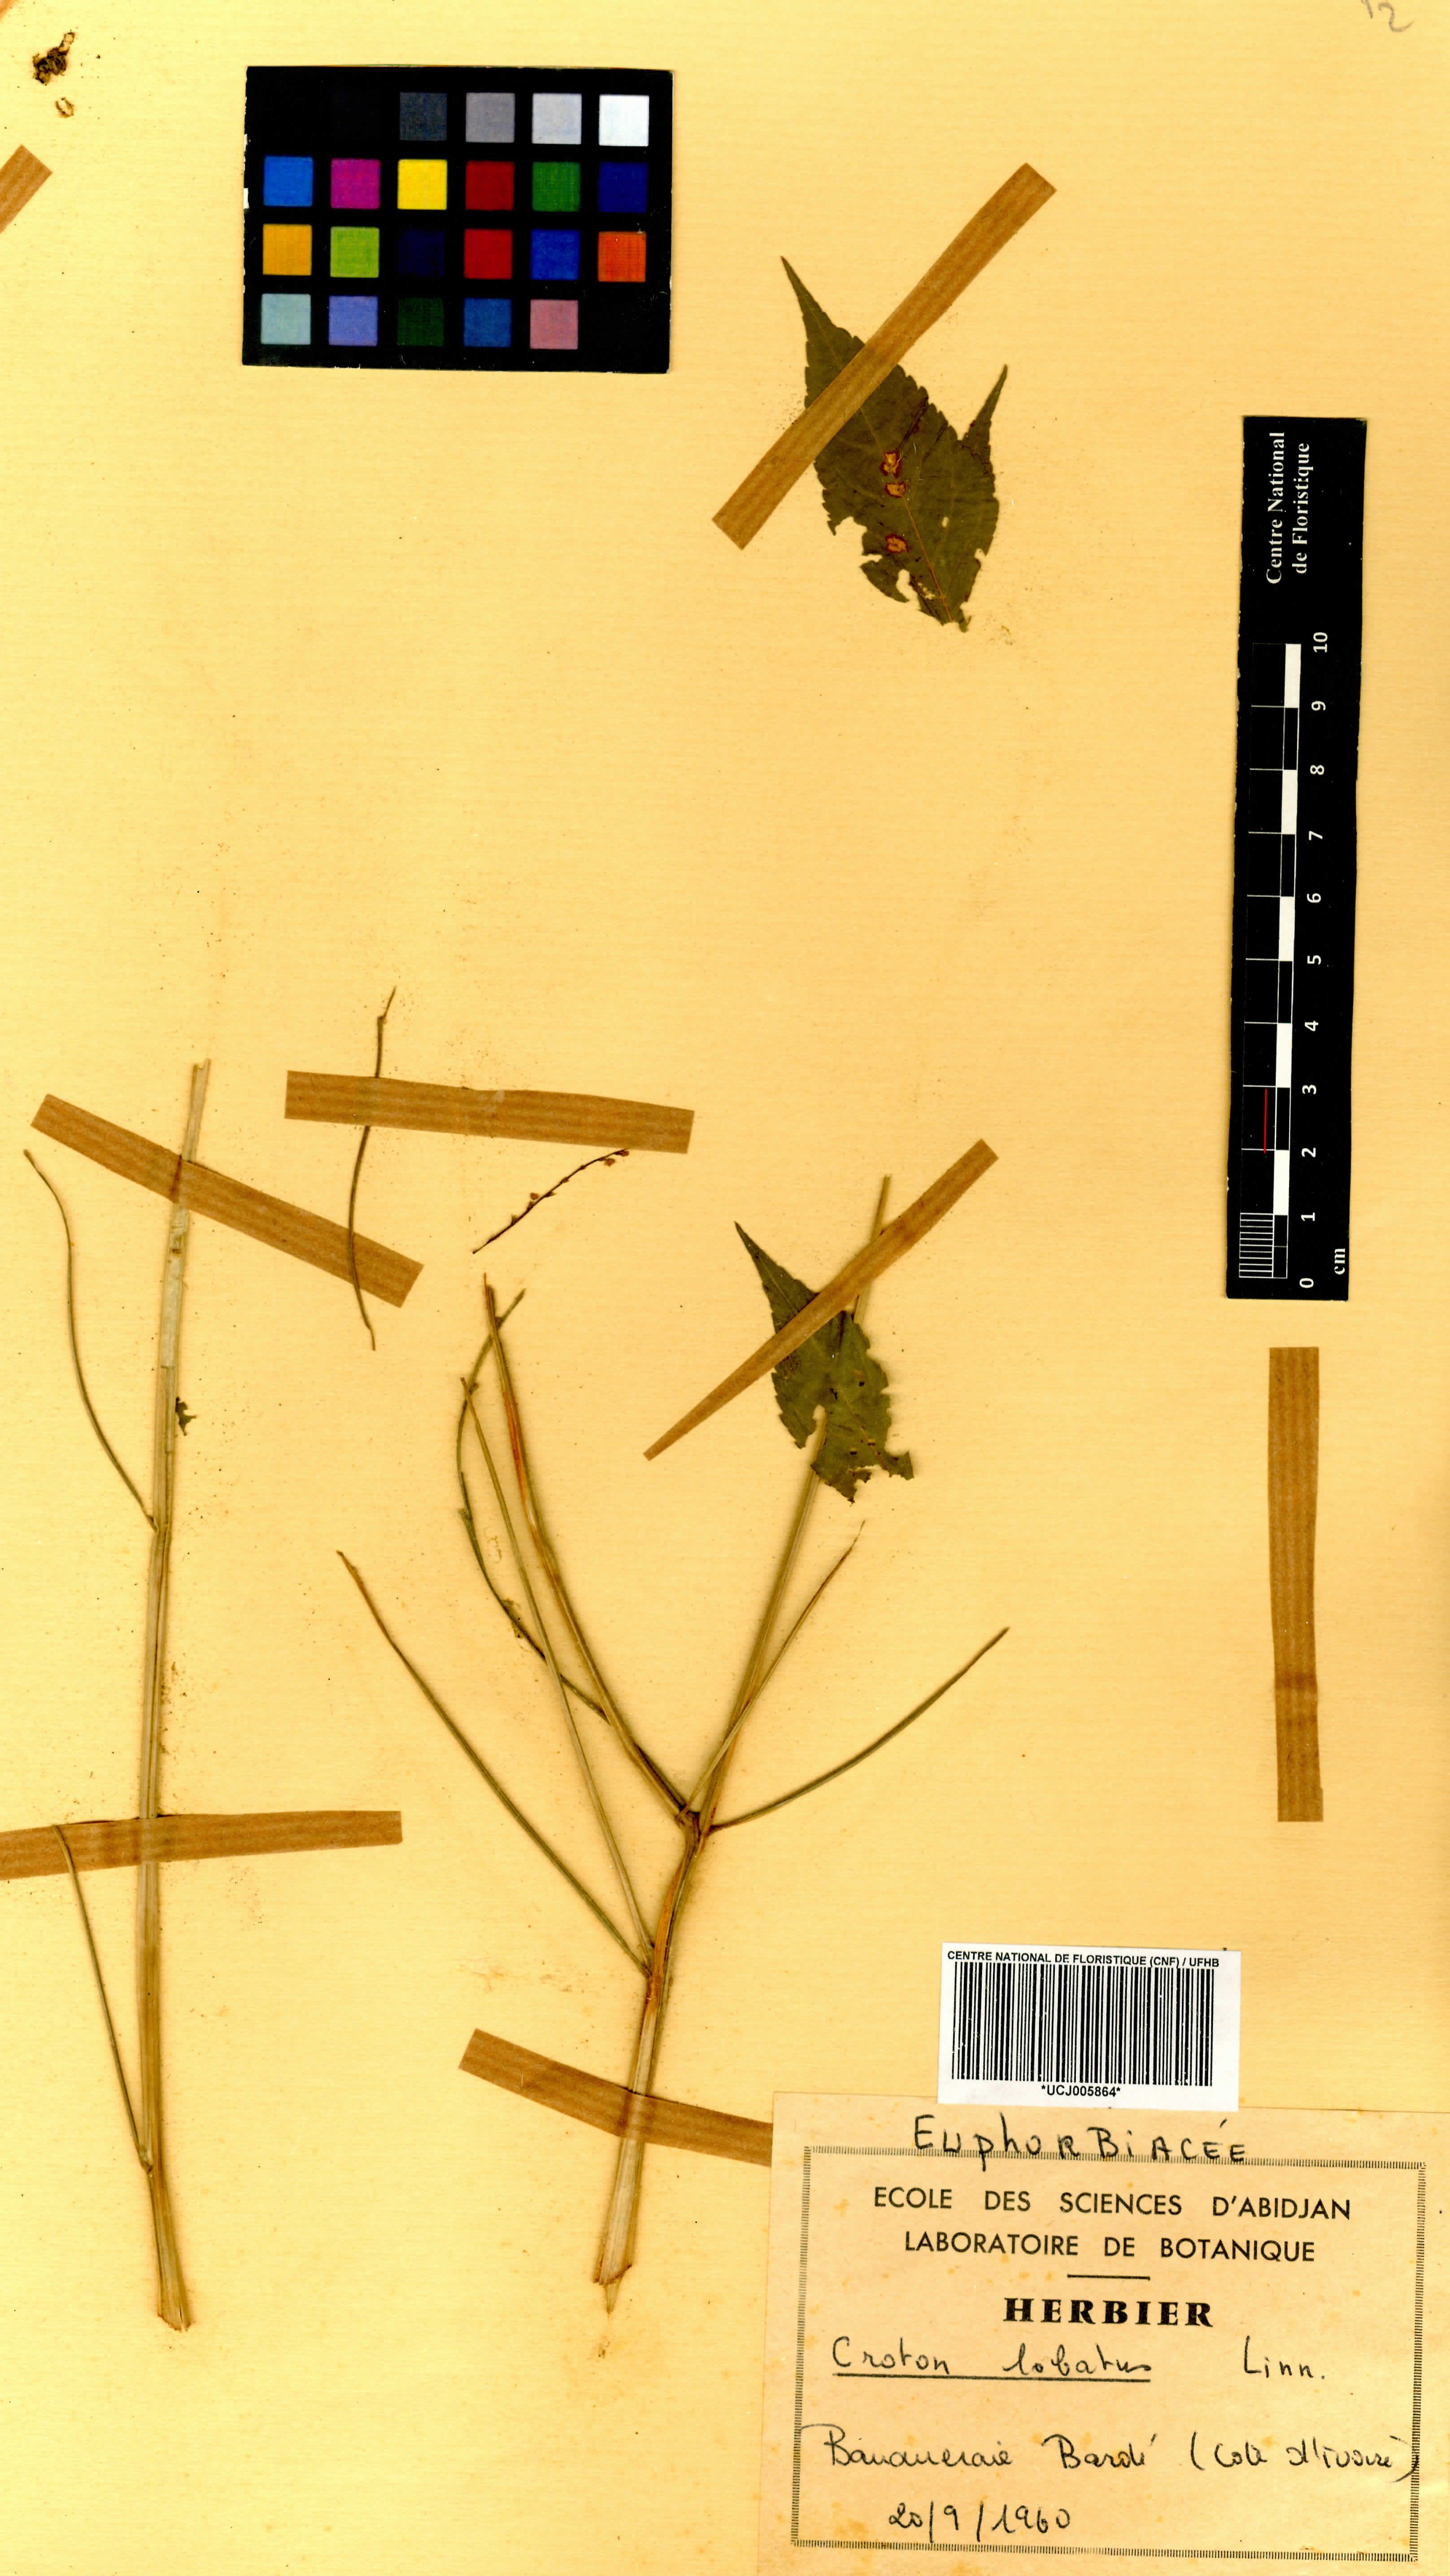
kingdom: Plantae
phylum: Tracheophyta
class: Magnoliopsida
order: Malpighiales
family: Euphorbiaceae
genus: Astraea
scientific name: Astraea lobata
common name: Lobed croton
